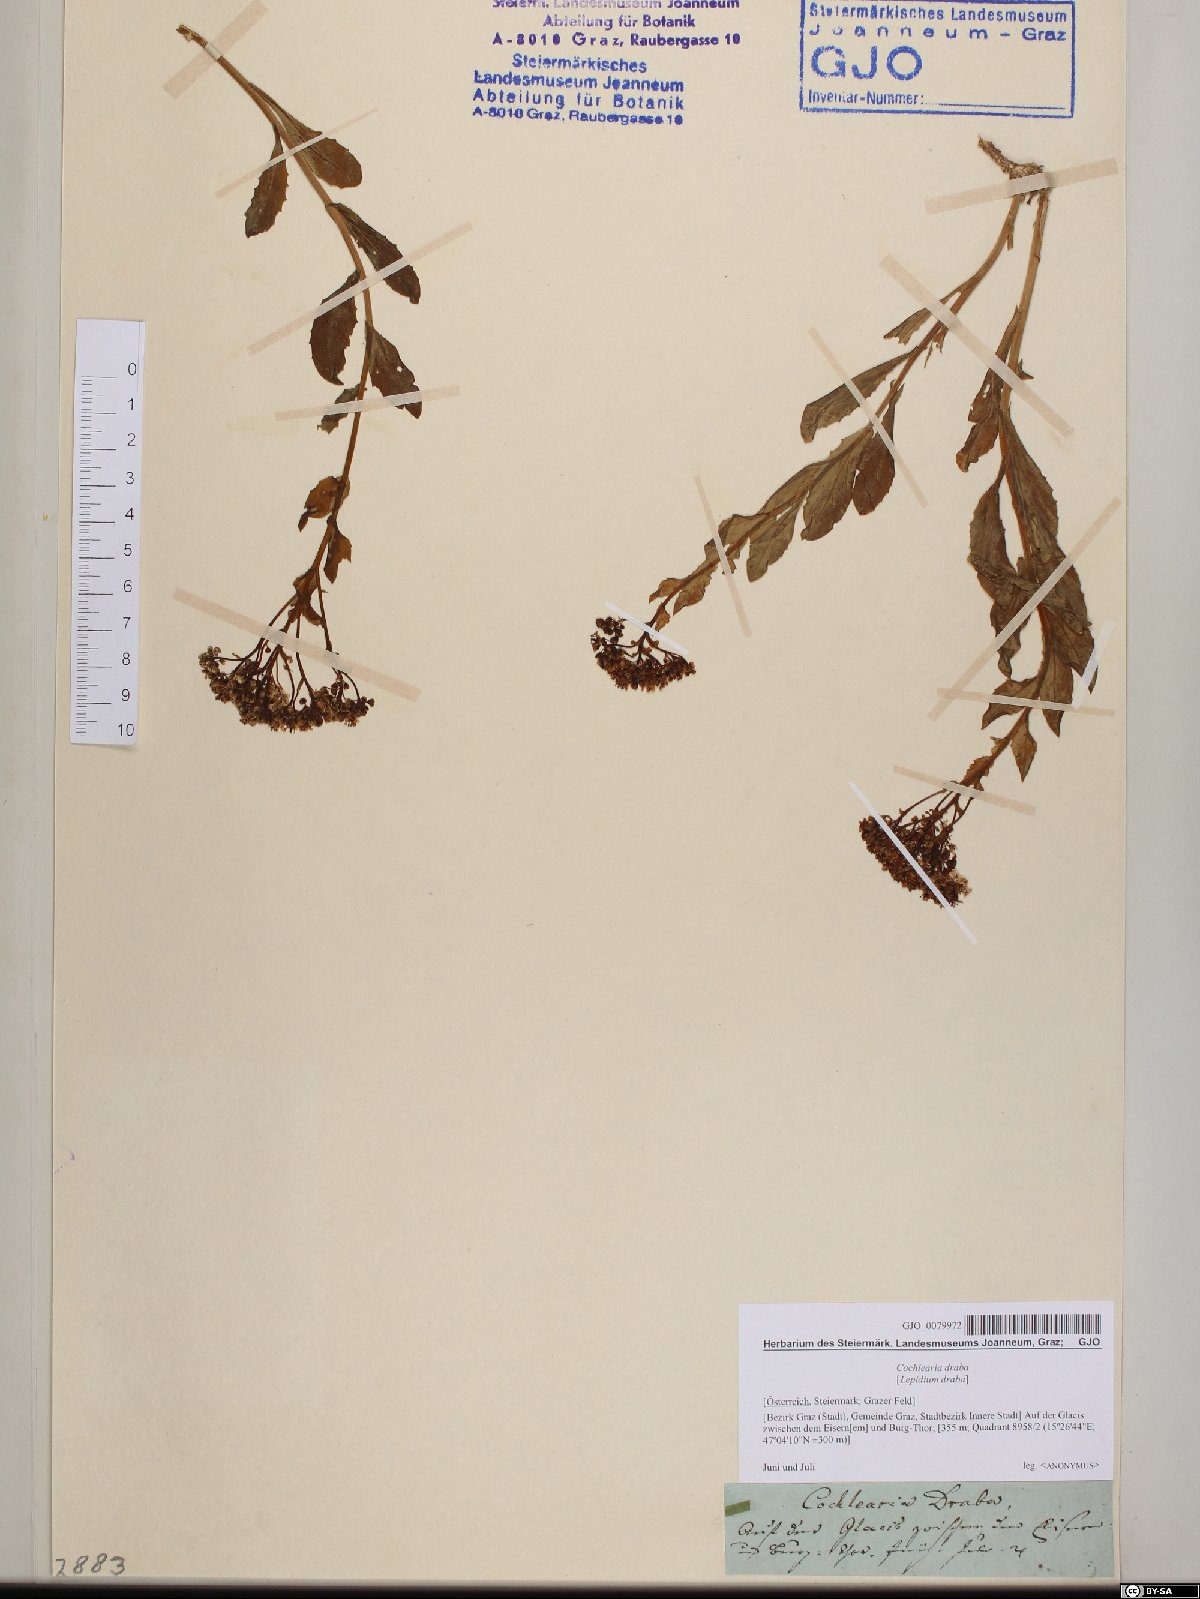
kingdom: Plantae
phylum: Tracheophyta
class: Magnoliopsida
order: Brassicales
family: Brassicaceae
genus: Lepidium
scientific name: Lepidium draba
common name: Hoary cress
